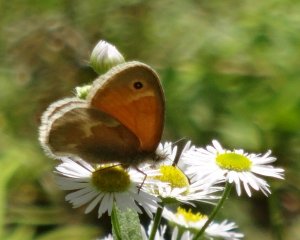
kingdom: Animalia
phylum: Arthropoda
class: Insecta
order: Lepidoptera
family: Nymphalidae
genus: Coenonympha
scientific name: Coenonympha tullia
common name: Large Heath
